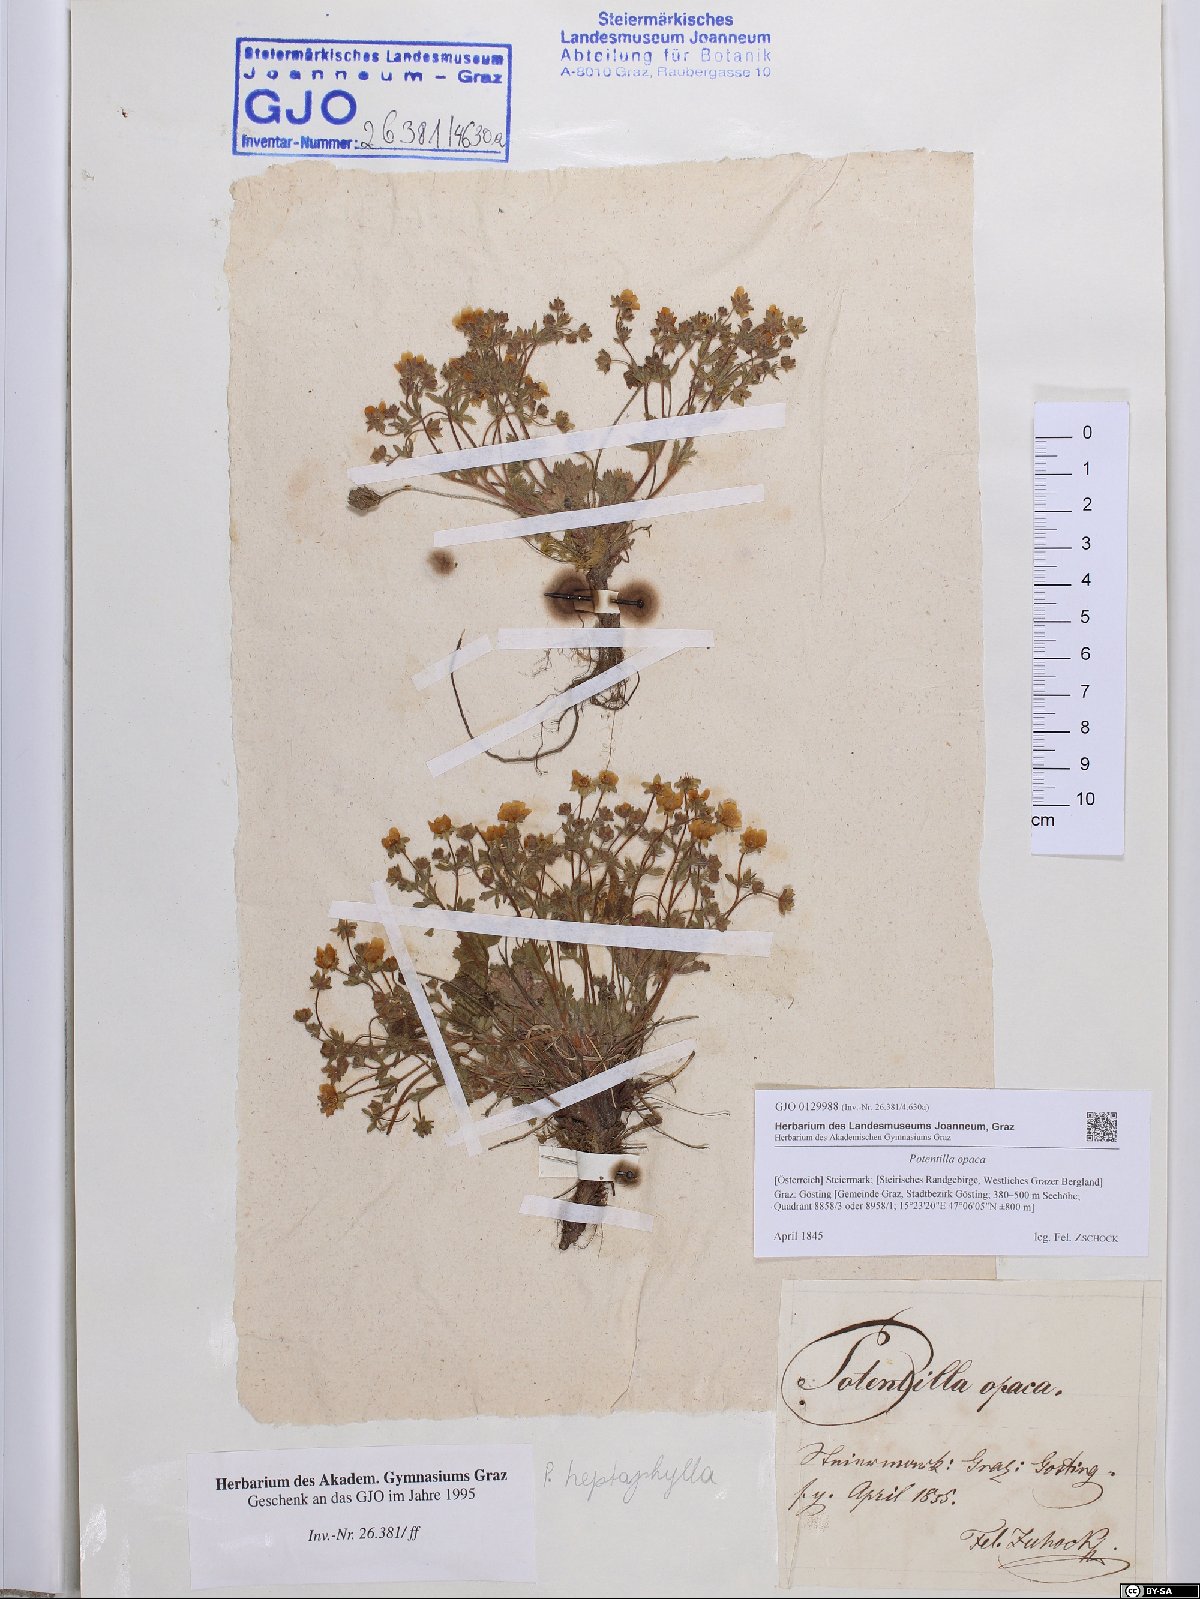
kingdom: Plantae
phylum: Tracheophyta
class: Magnoliopsida
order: Rosales
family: Rosaceae
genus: Potentilla
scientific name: Potentilla
